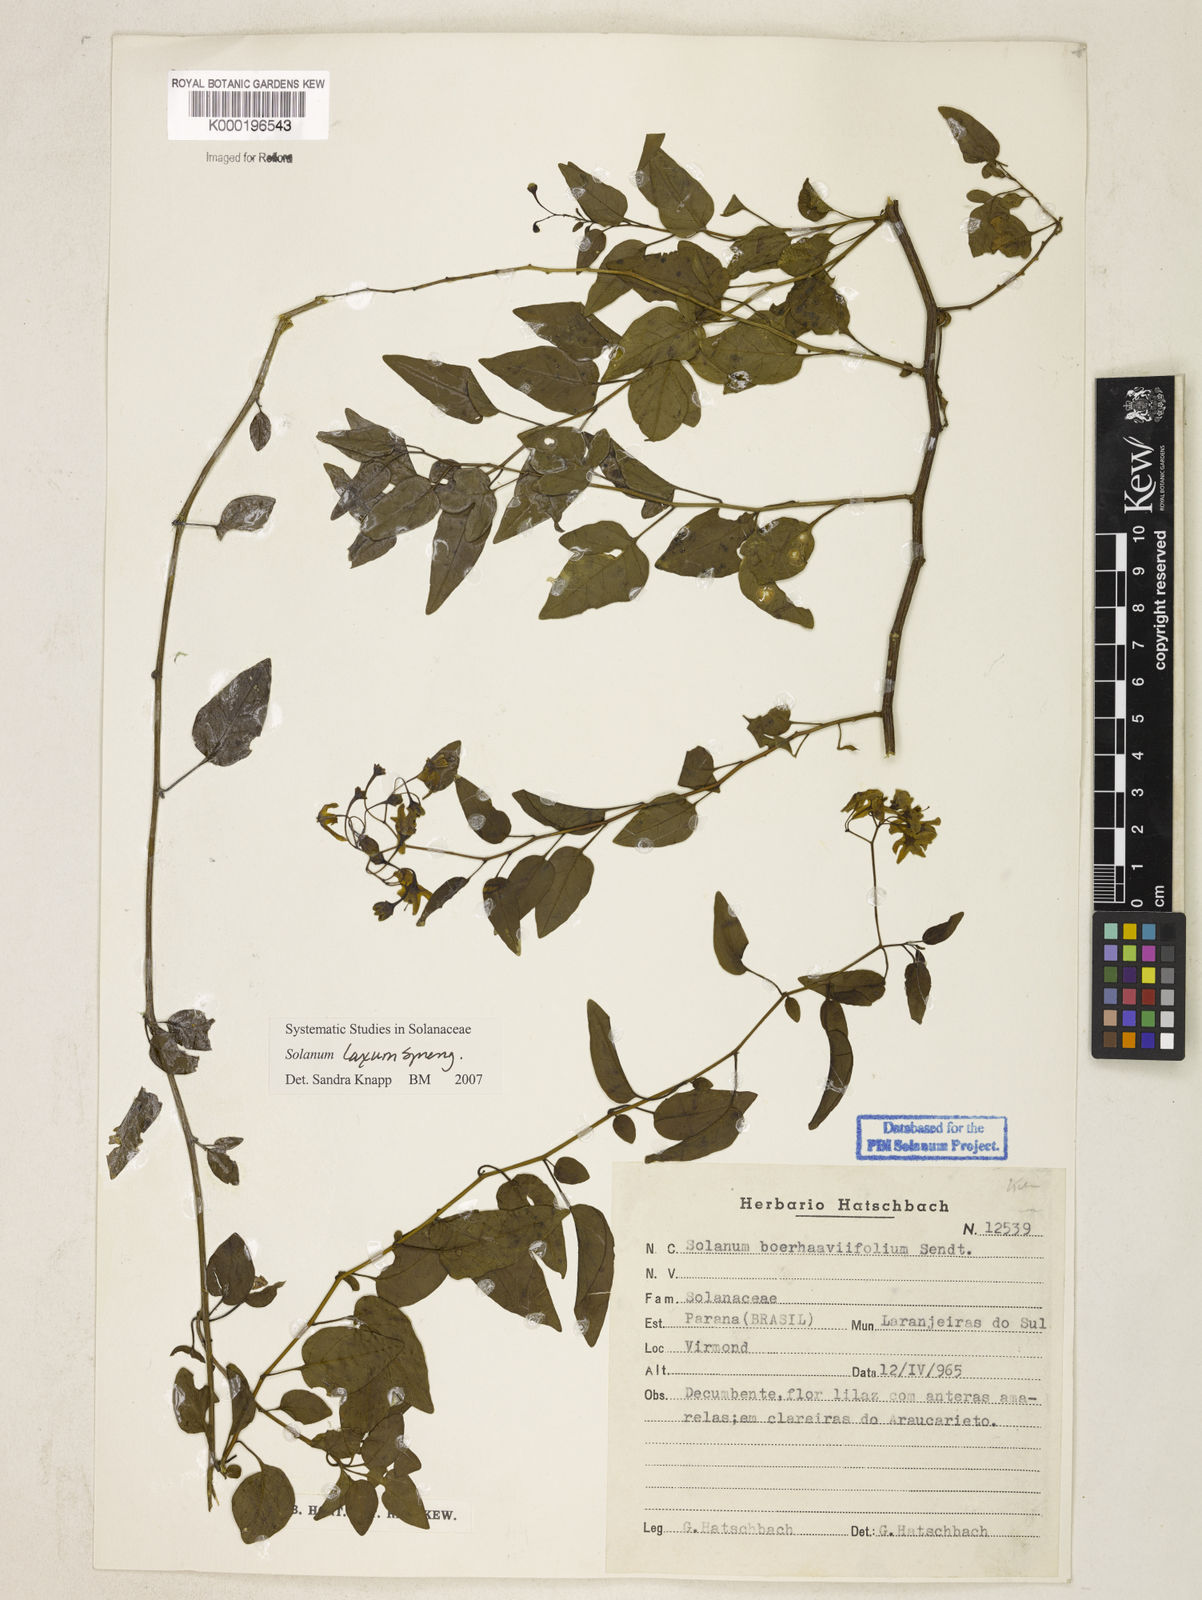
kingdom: Plantae
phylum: Tracheophyta
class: Magnoliopsida
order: Solanales
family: Solanaceae
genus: Solanum
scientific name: Solanum laxum
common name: Nightshade
